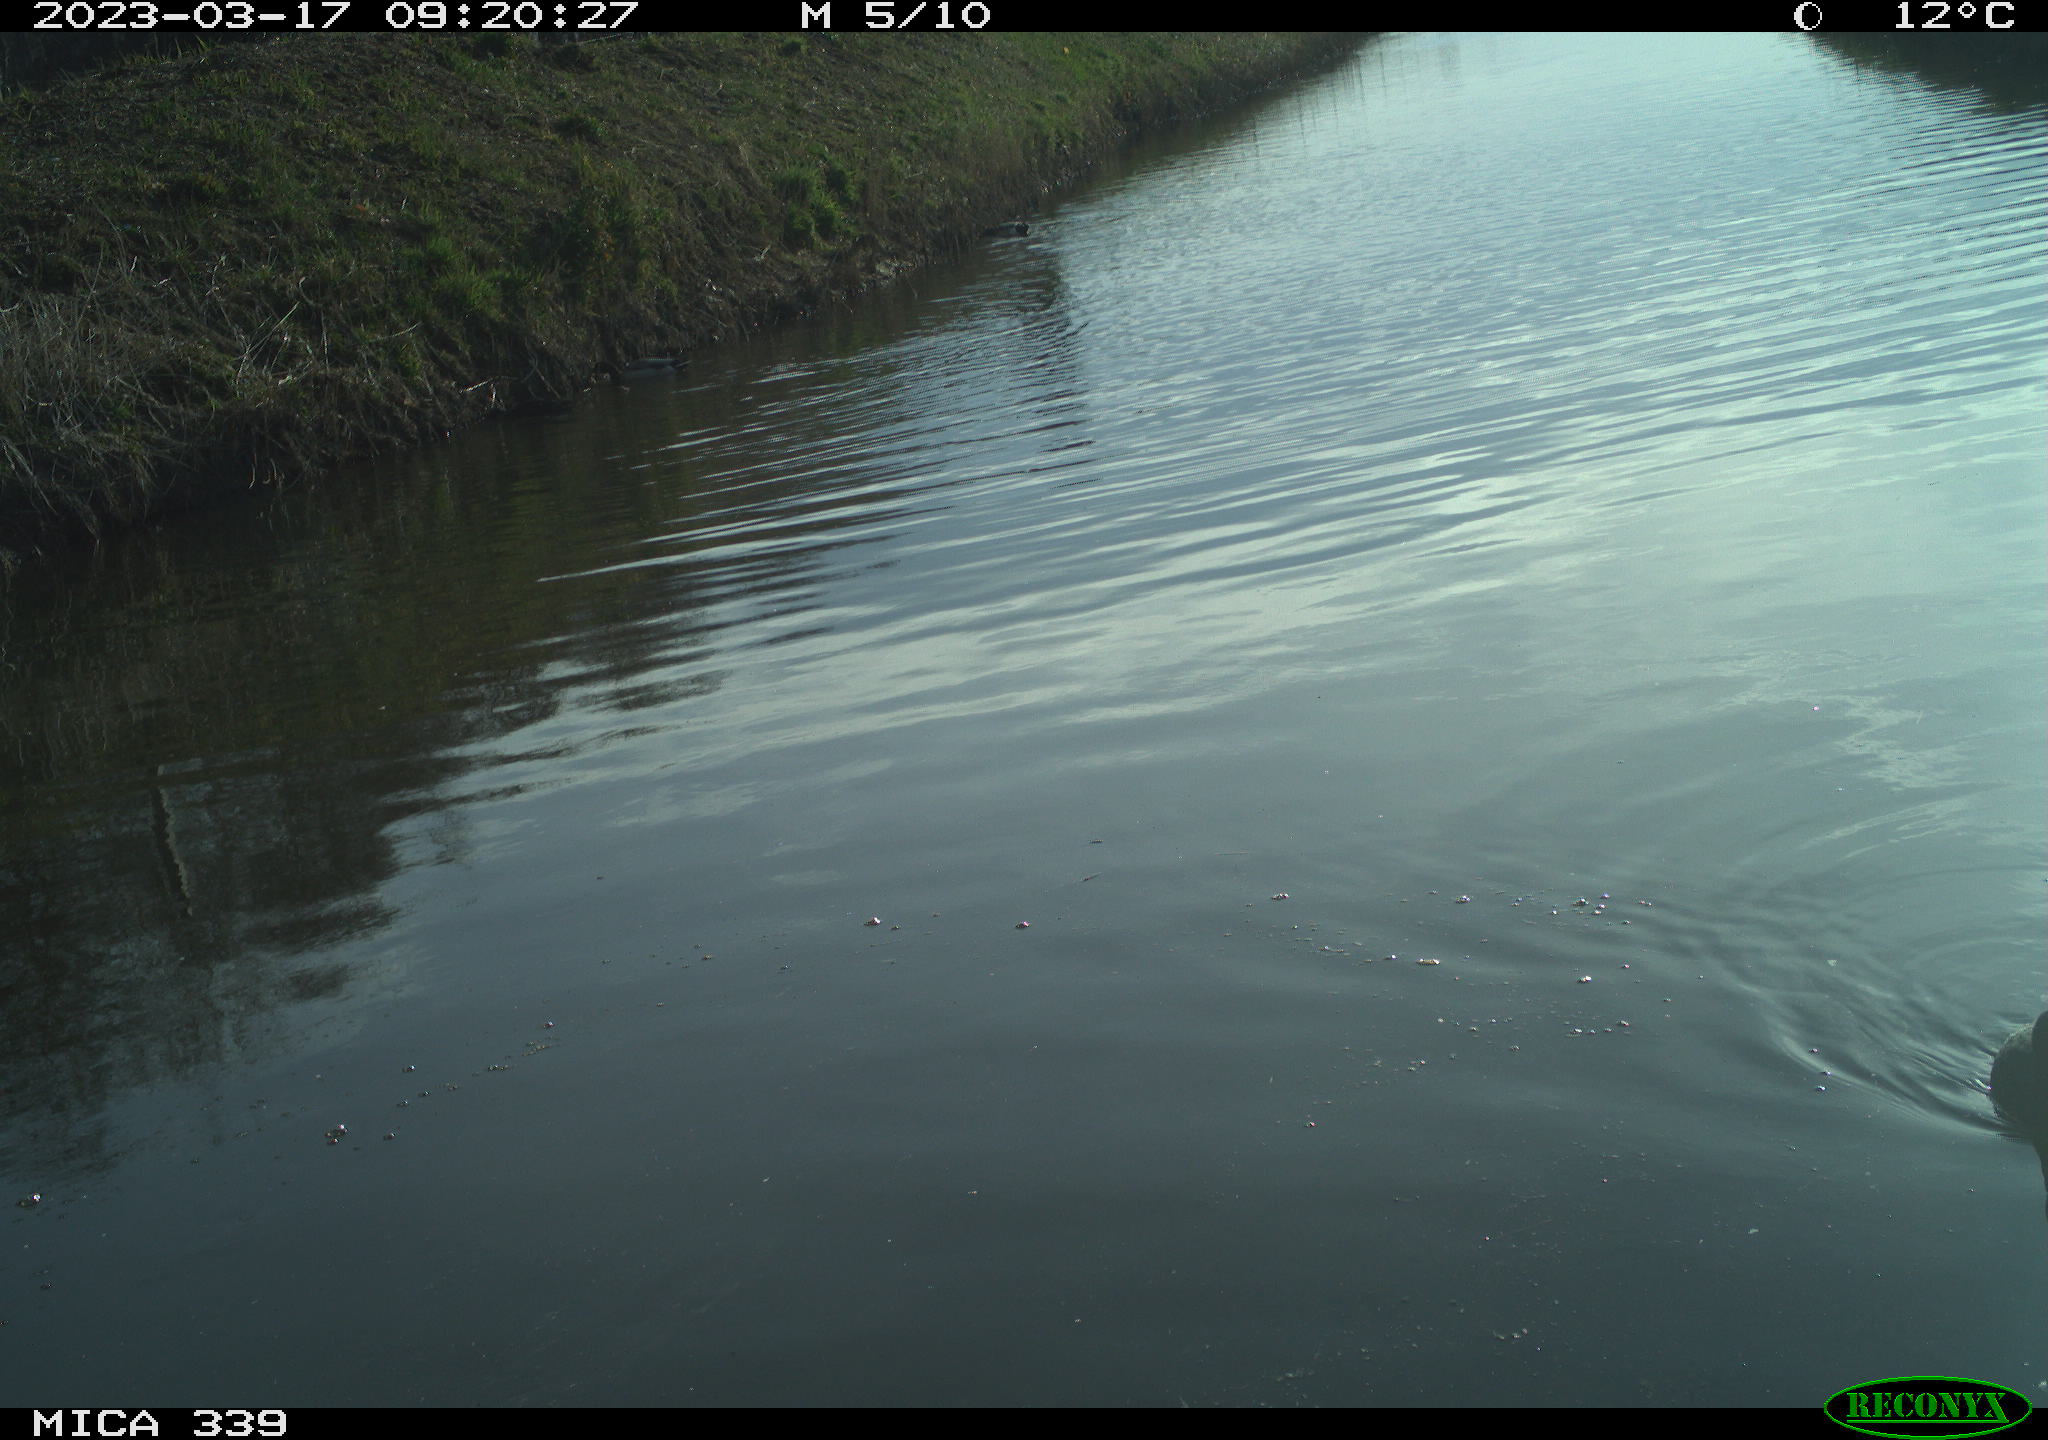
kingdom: Animalia
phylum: Chordata
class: Aves
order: Gruiformes
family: Rallidae
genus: Fulica
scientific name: Fulica atra
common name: Eurasian coot
